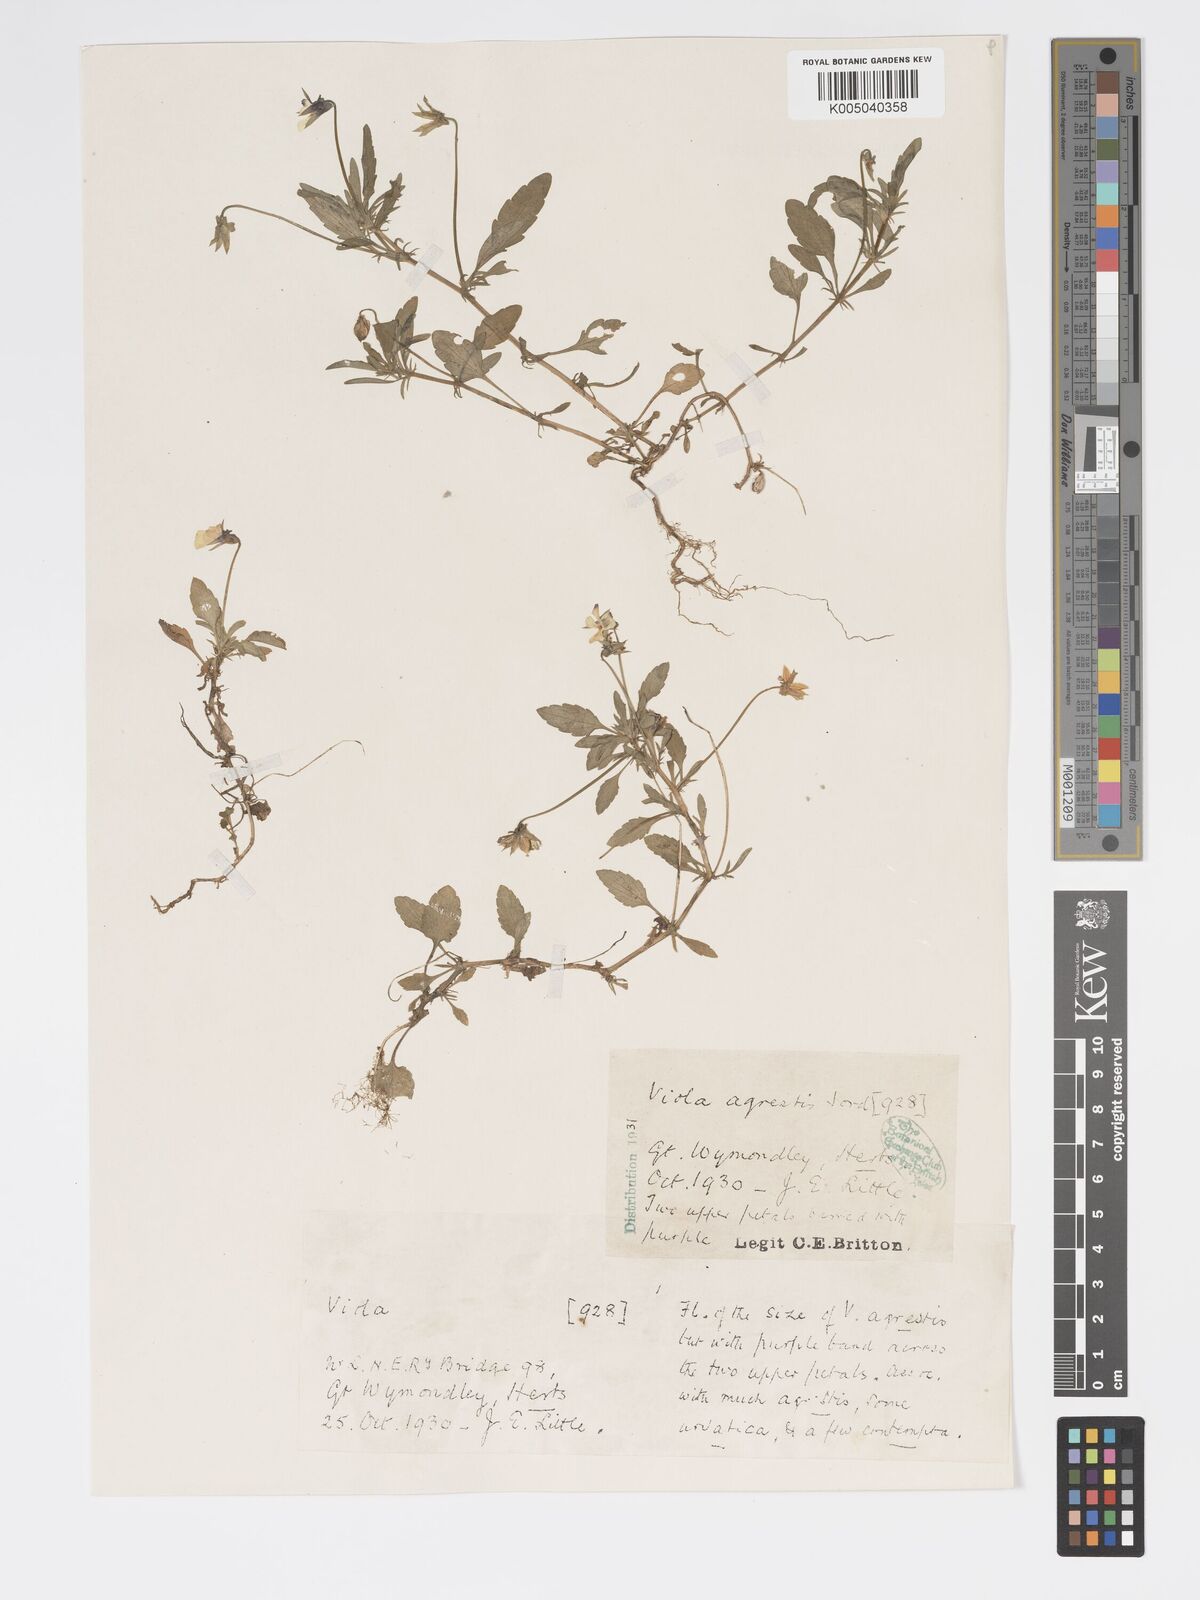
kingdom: Plantae
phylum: Tracheophyta
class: Magnoliopsida
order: Malpighiales
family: Violaceae
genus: Viola
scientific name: Viola arvensis
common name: Field pansy
